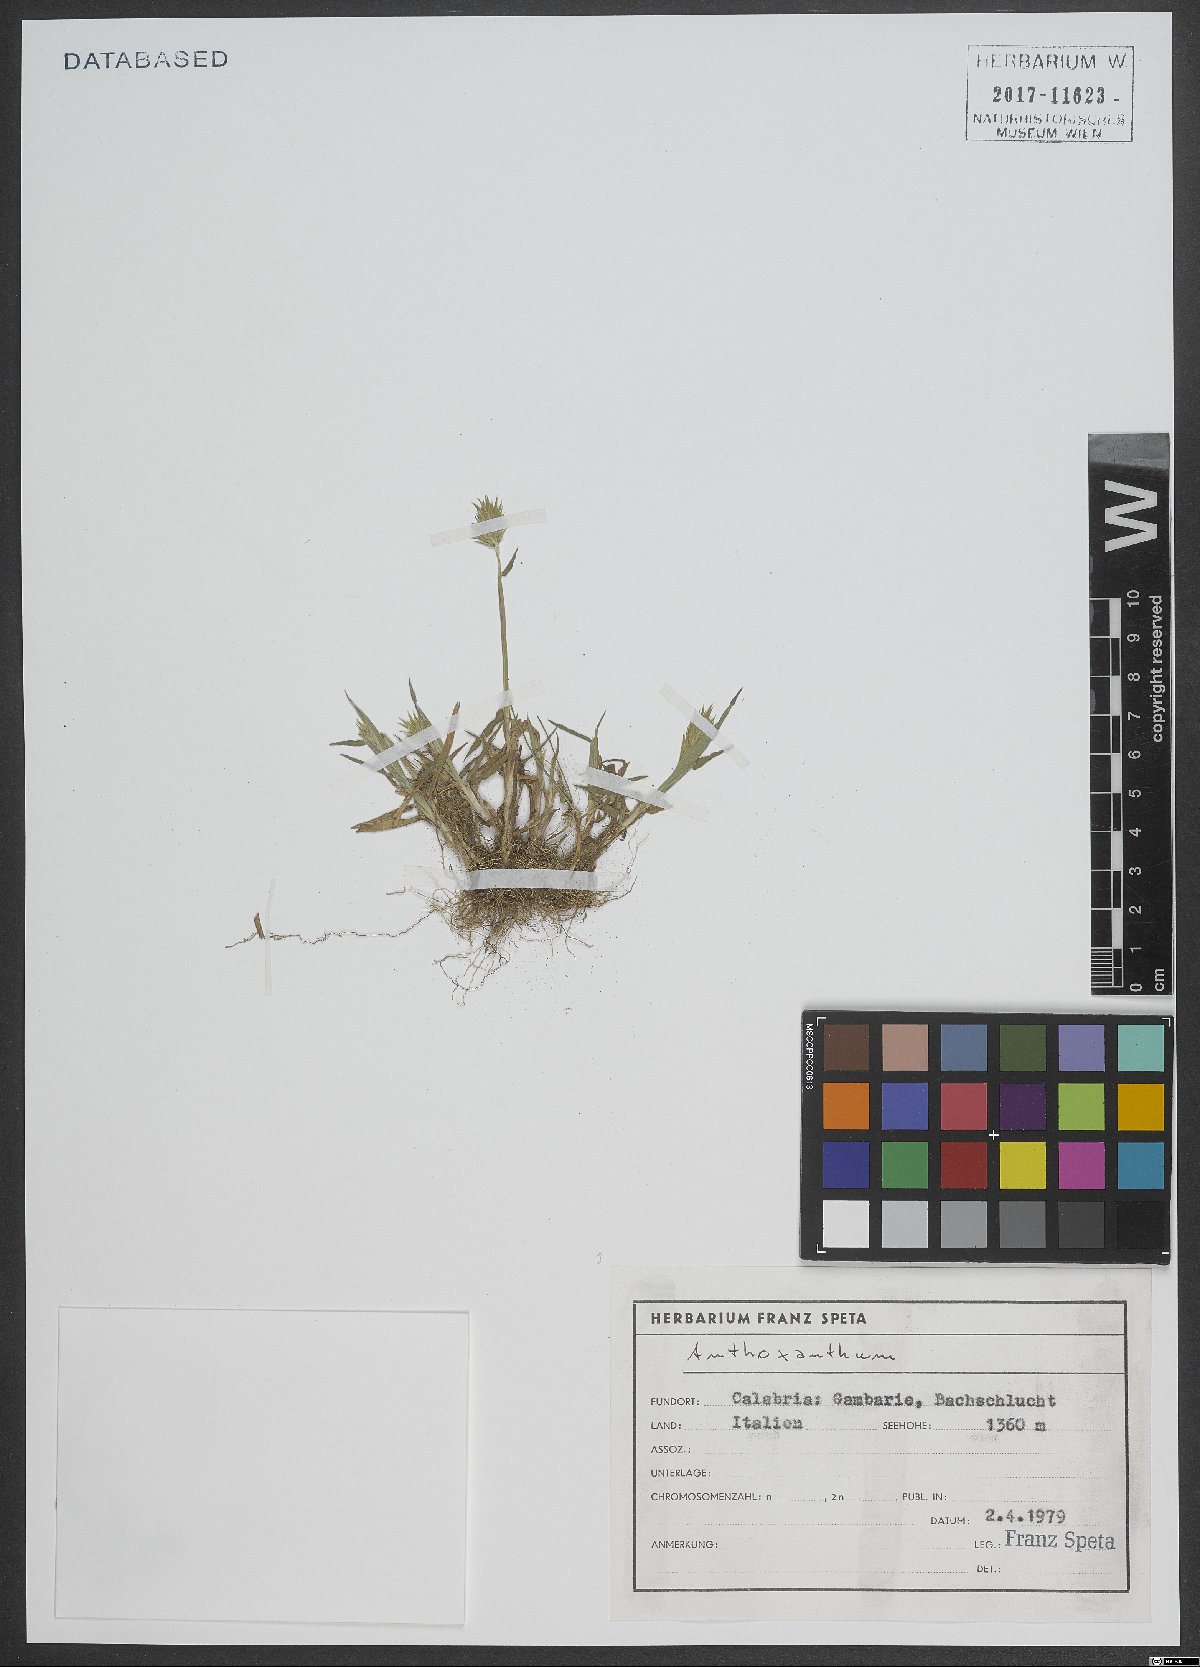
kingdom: Plantae
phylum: Tracheophyta
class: Liliopsida
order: Poales
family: Poaceae
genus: Anthoxanthum
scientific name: Anthoxanthum
